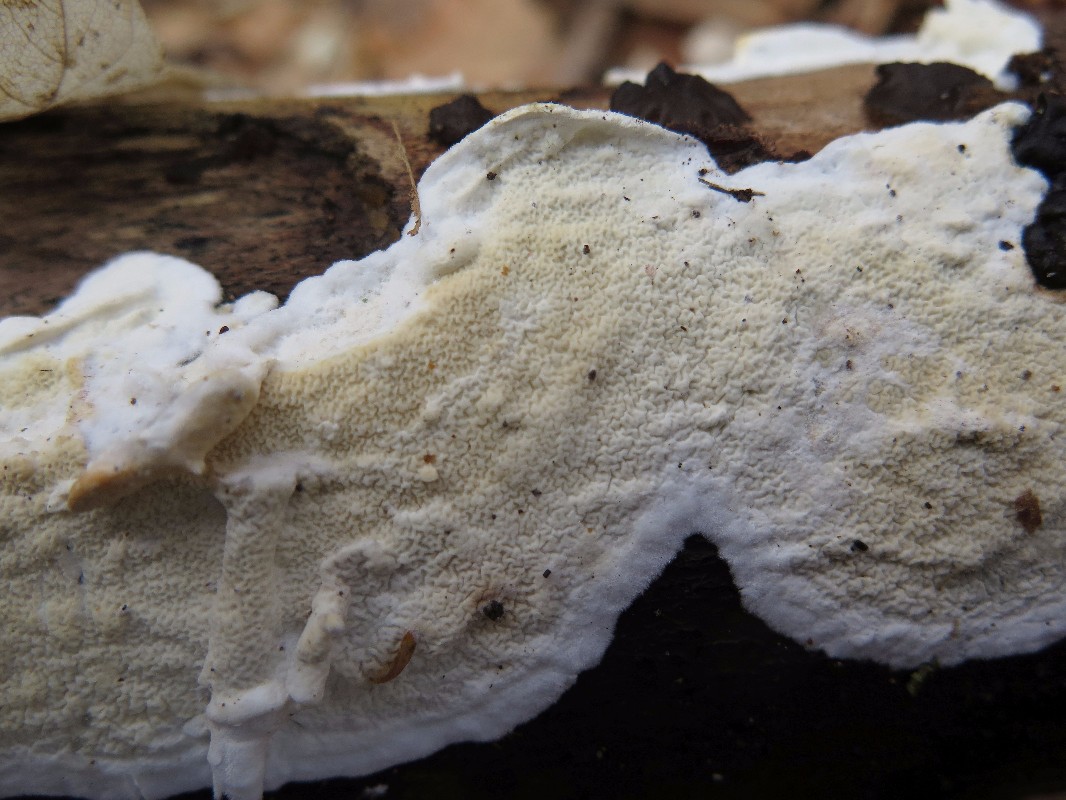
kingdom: Fungi
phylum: Basidiomycota
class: Agaricomycetes
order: Polyporales
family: Irpicaceae
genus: Byssomerulius
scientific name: Byssomerulius corium
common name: læder-åresvamp
